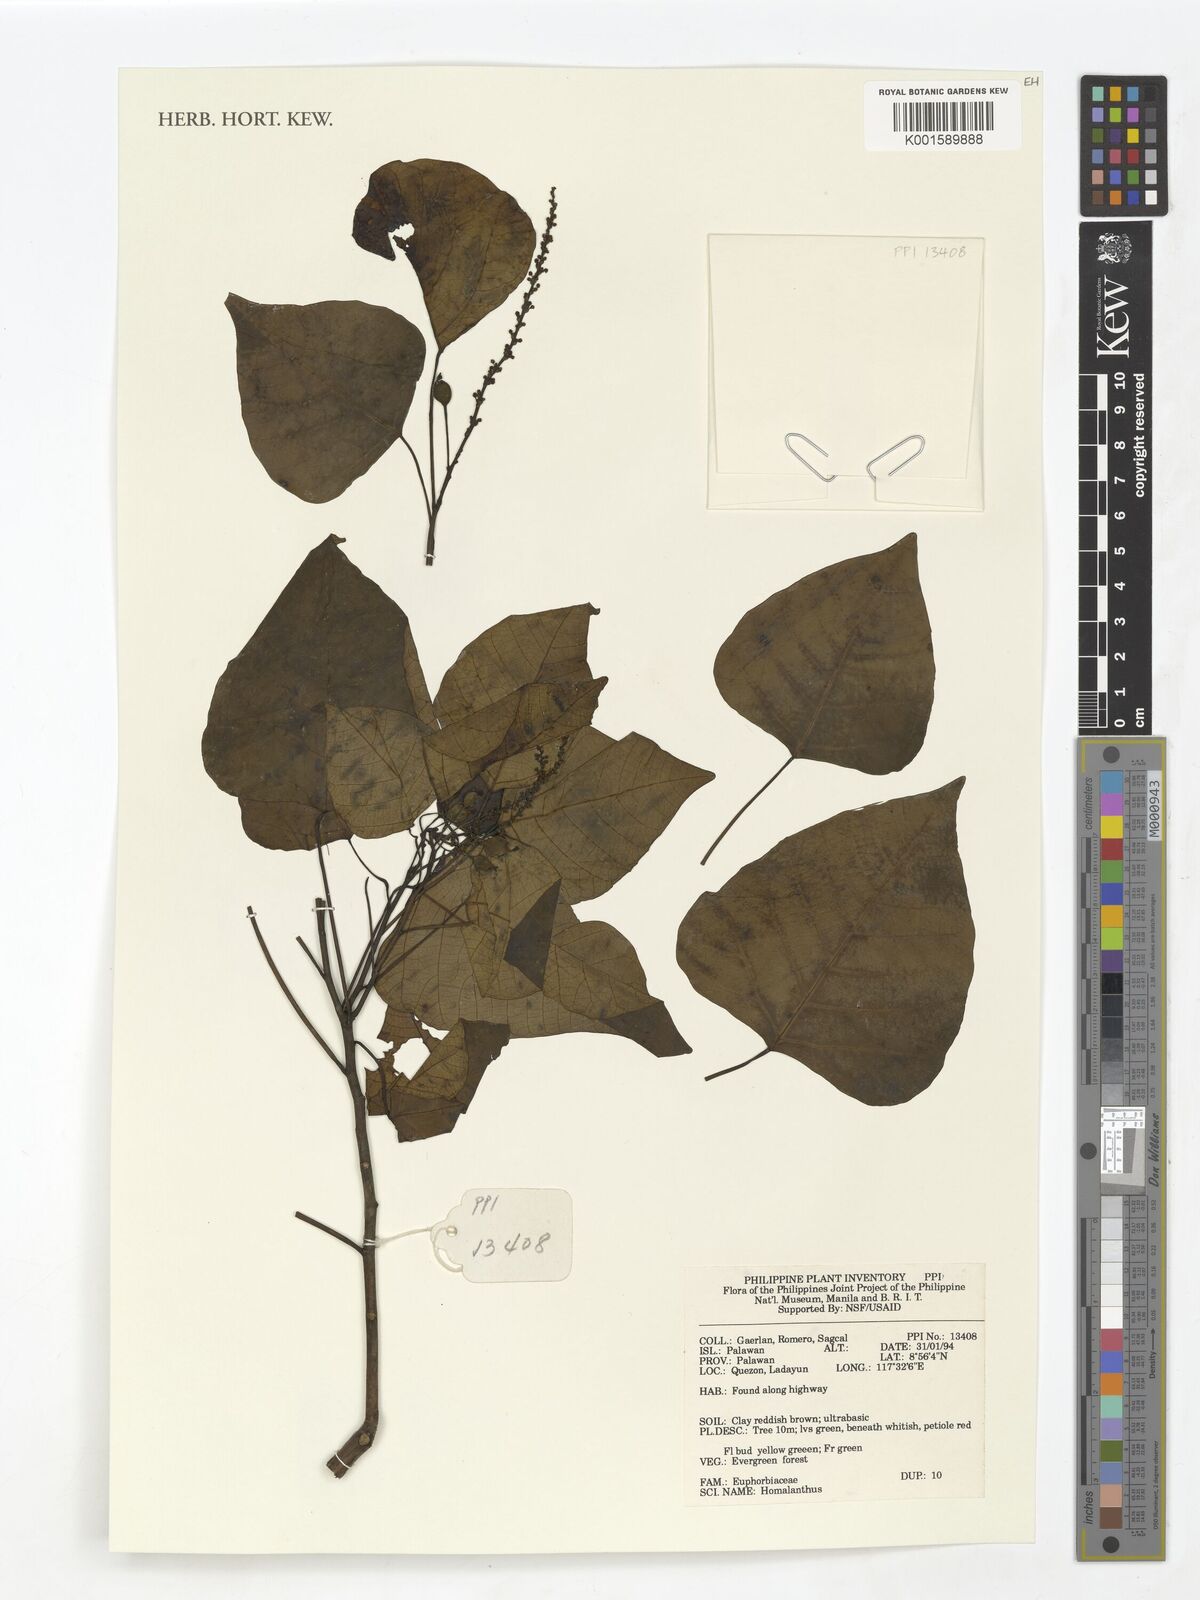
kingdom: Plantae
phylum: Tracheophyta
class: Magnoliopsida
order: Malpighiales
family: Euphorbiaceae
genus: Homalanthus
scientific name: Homalanthus
